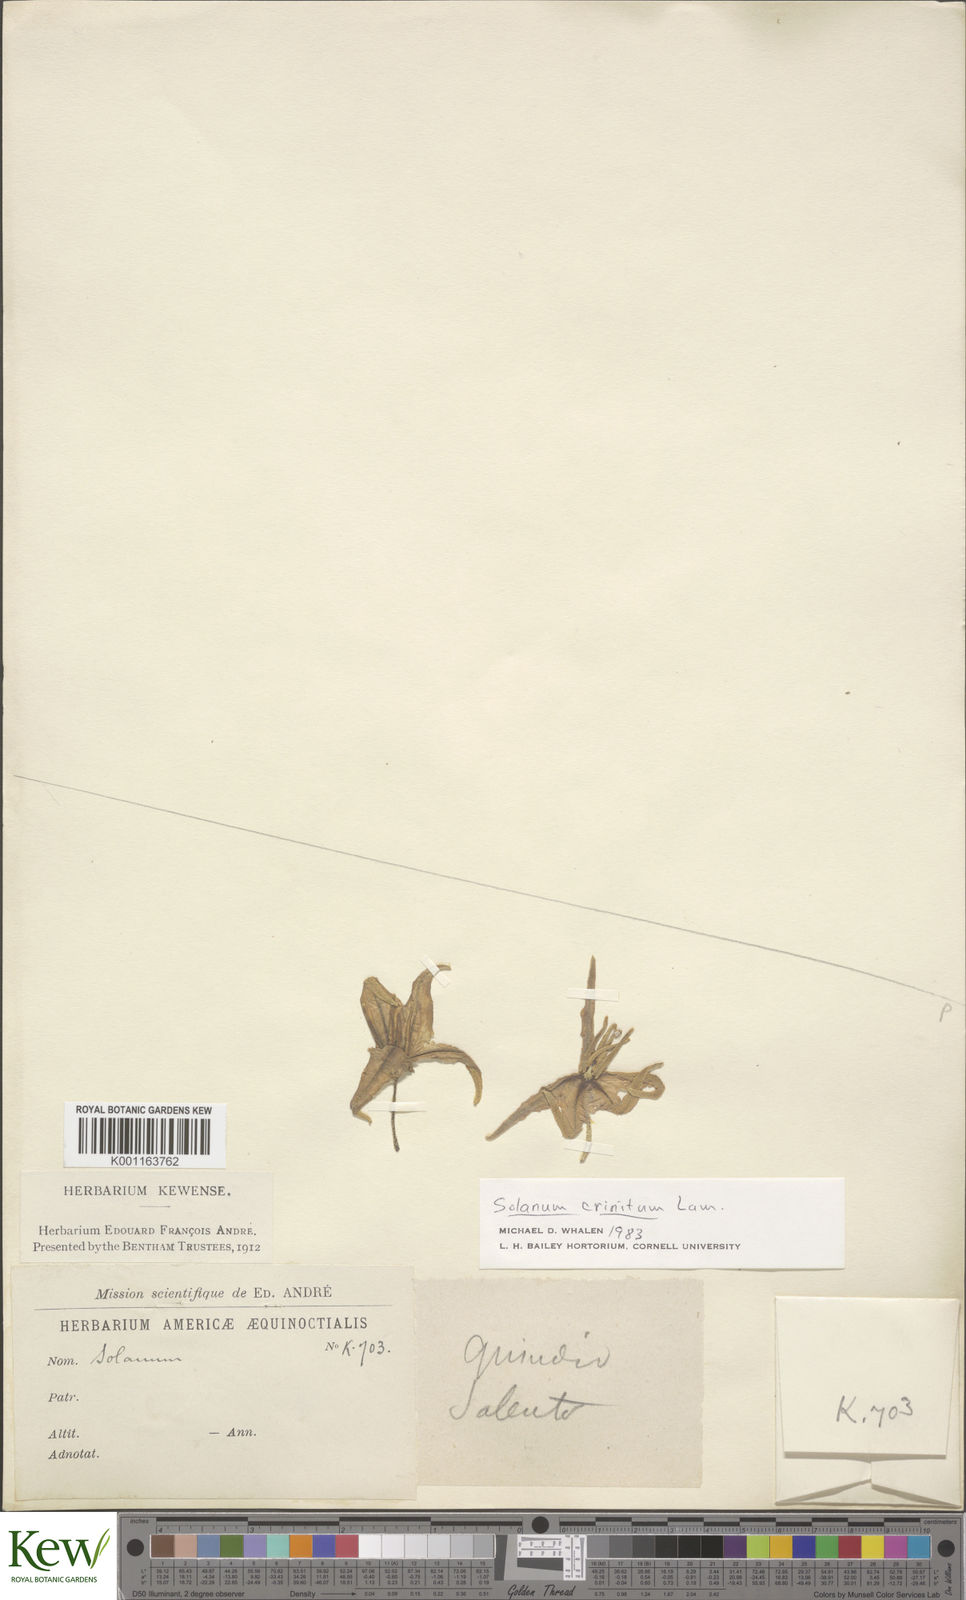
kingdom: Plantae
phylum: Tracheophyta
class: Magnoliopsida
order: Solanales
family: Solanaceae
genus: Solanum
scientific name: Solanum crinitum
